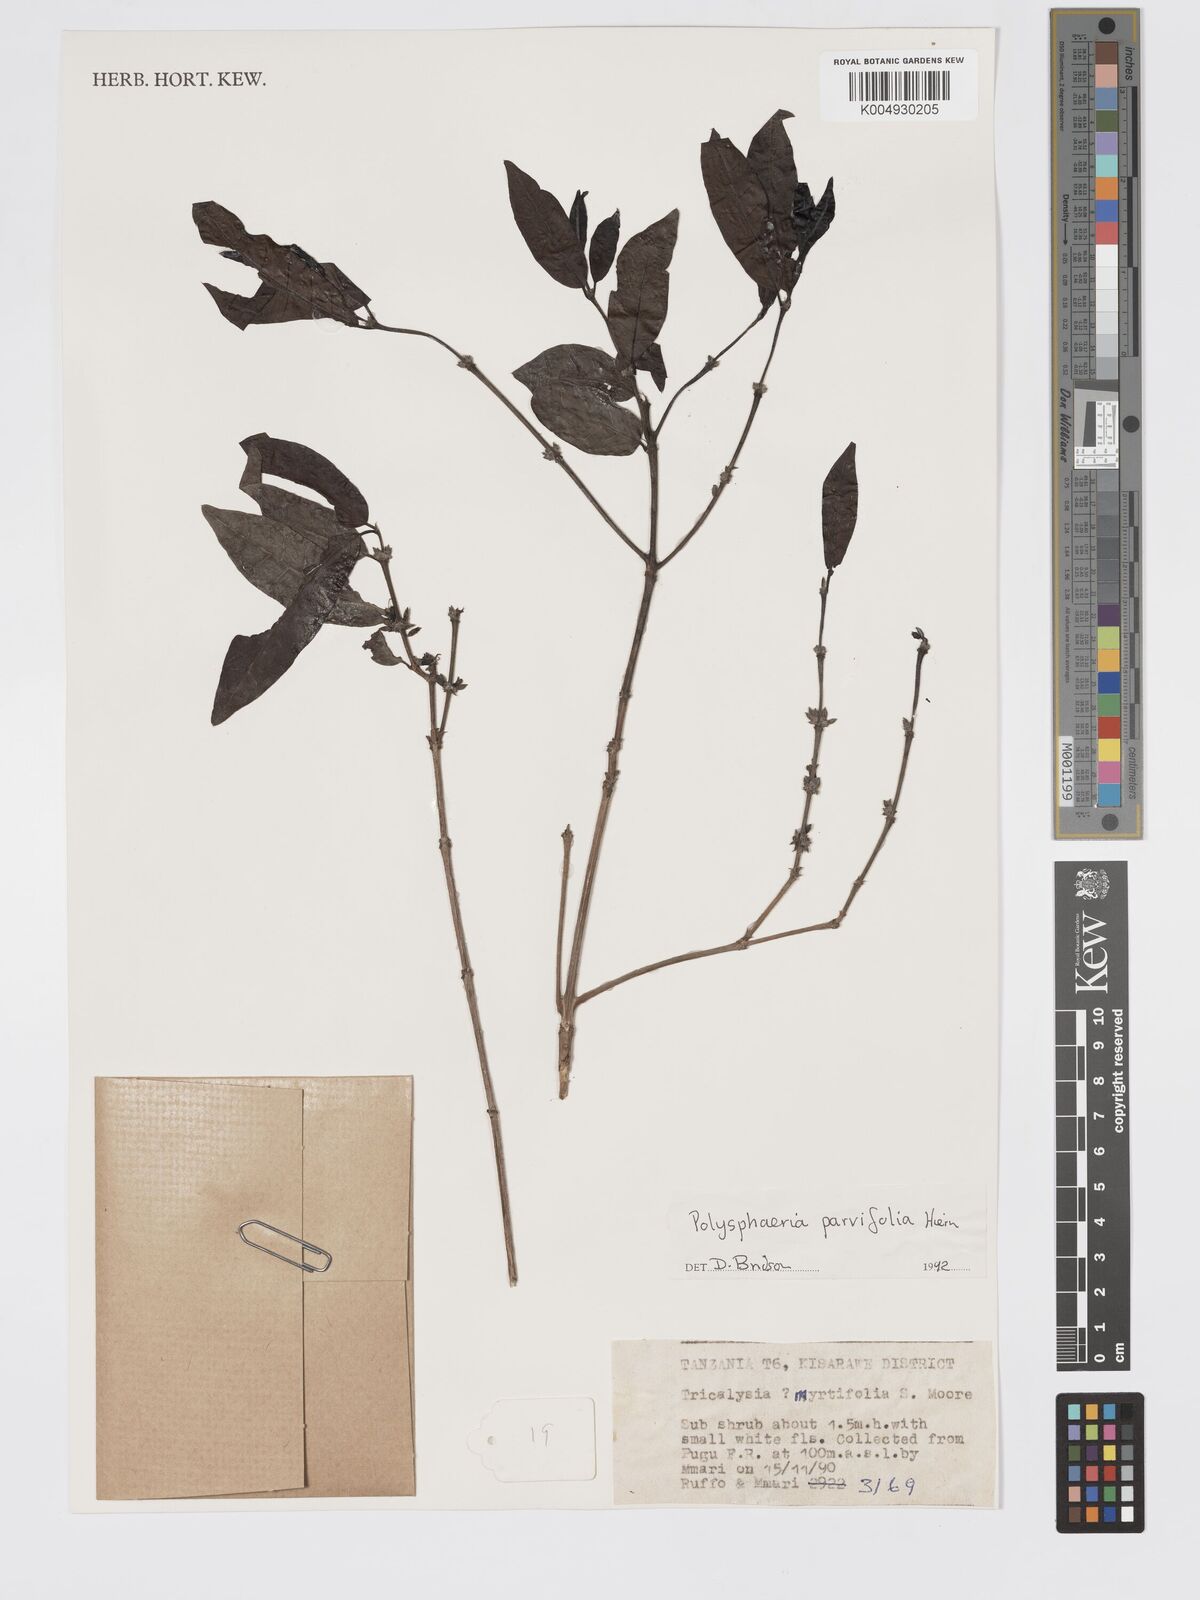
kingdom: Plantae
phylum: Tracheophyta
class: Magnoliopsida
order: Gentianales
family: Rubiaceae
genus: Polysphaeria
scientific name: Polysphaeria parvifolia
